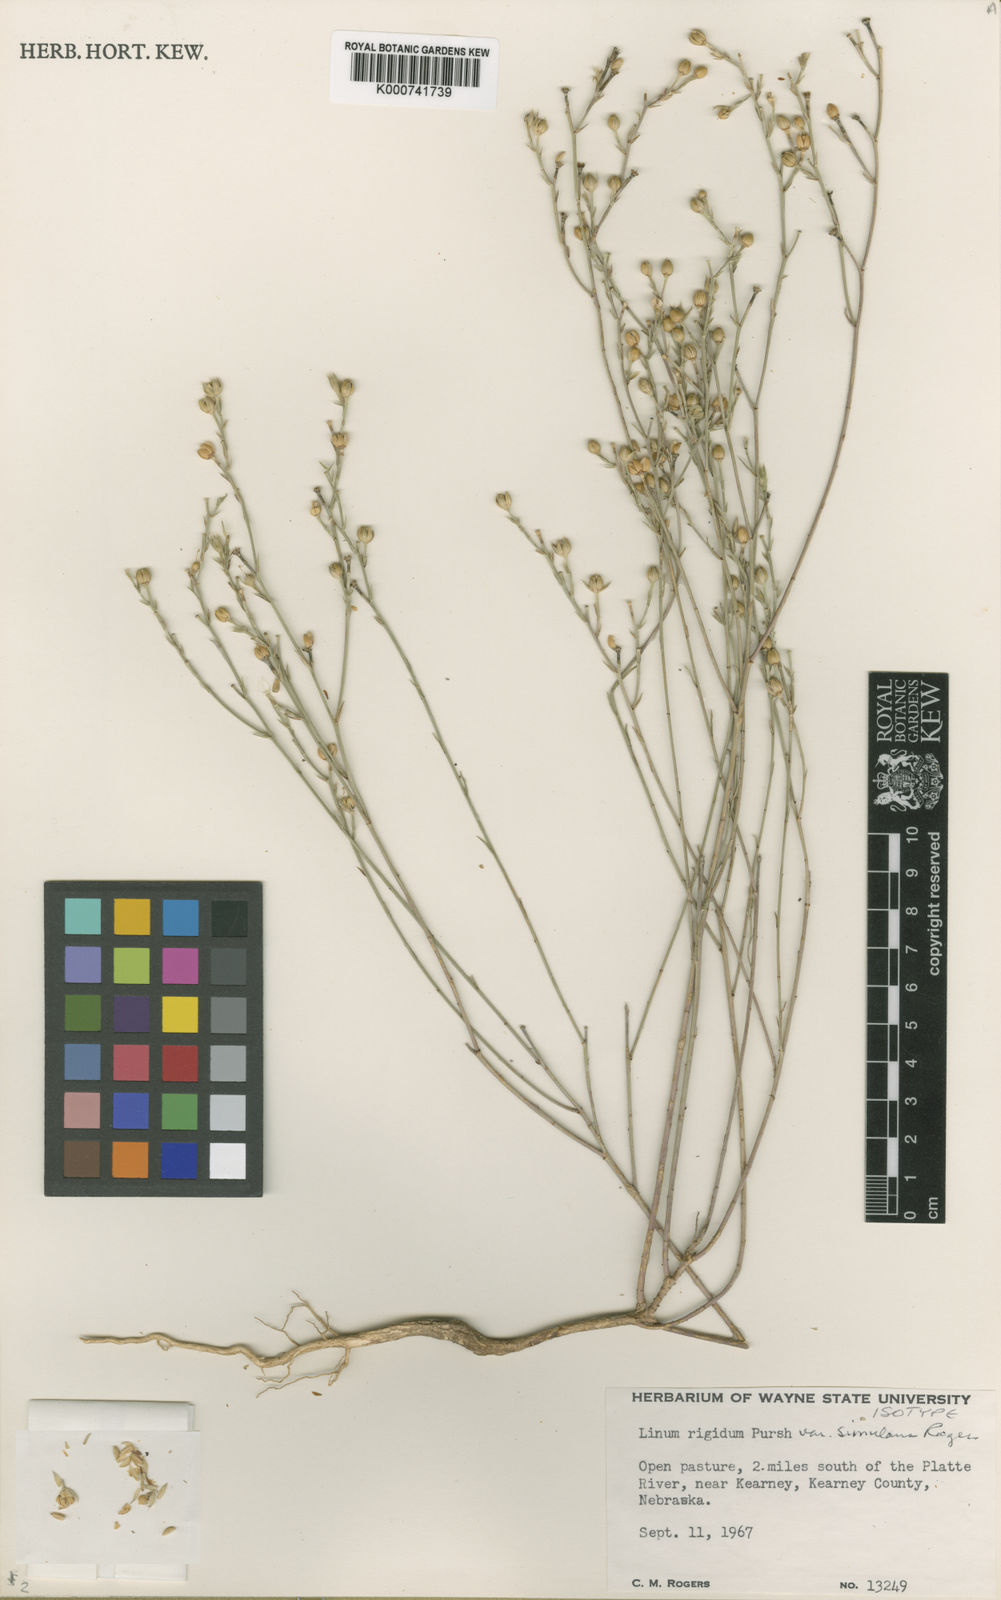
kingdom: Plantae
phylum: Tracheophyta
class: Magnoliopsida
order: Malpighiales
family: Linaceae
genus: Linum
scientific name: Linum rigidum
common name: Stiff-stem flax
